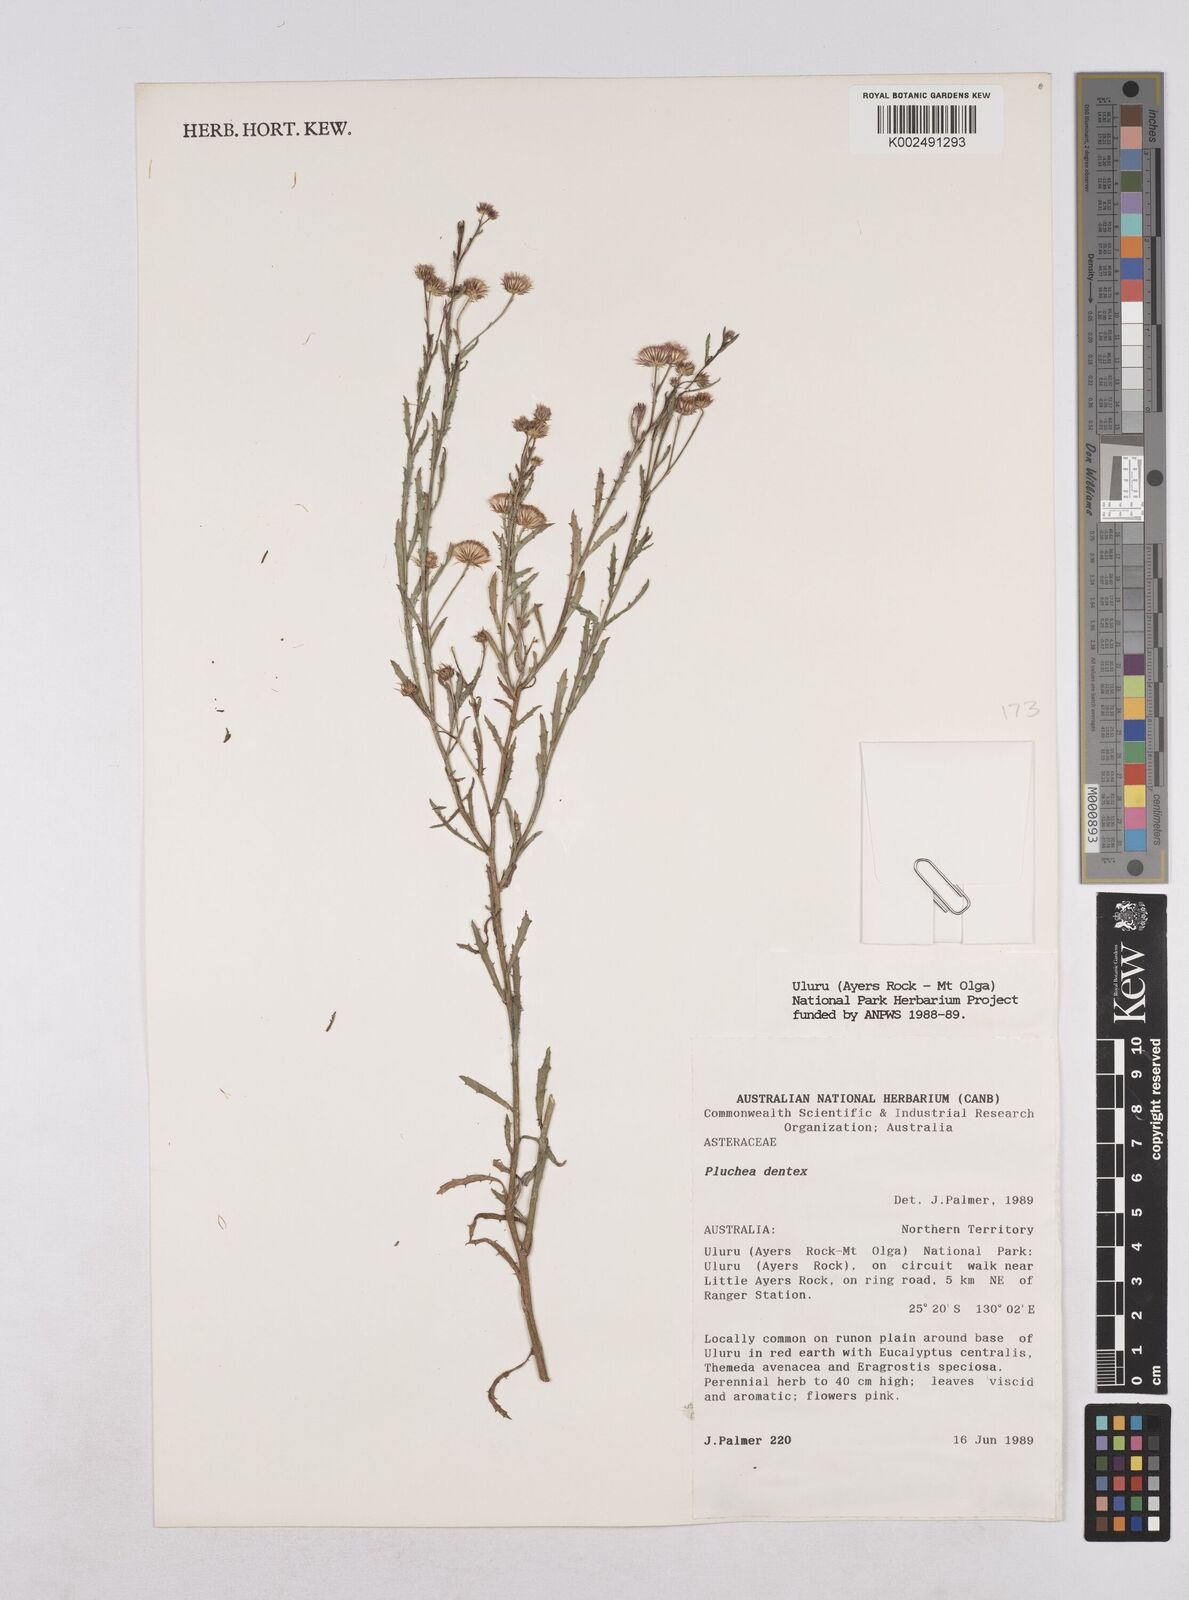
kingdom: Plantae
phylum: Tracheophyta
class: Magnoliopsida
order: Asterales
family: Asteraceae
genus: Pluchea
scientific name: Pluchea dentex
